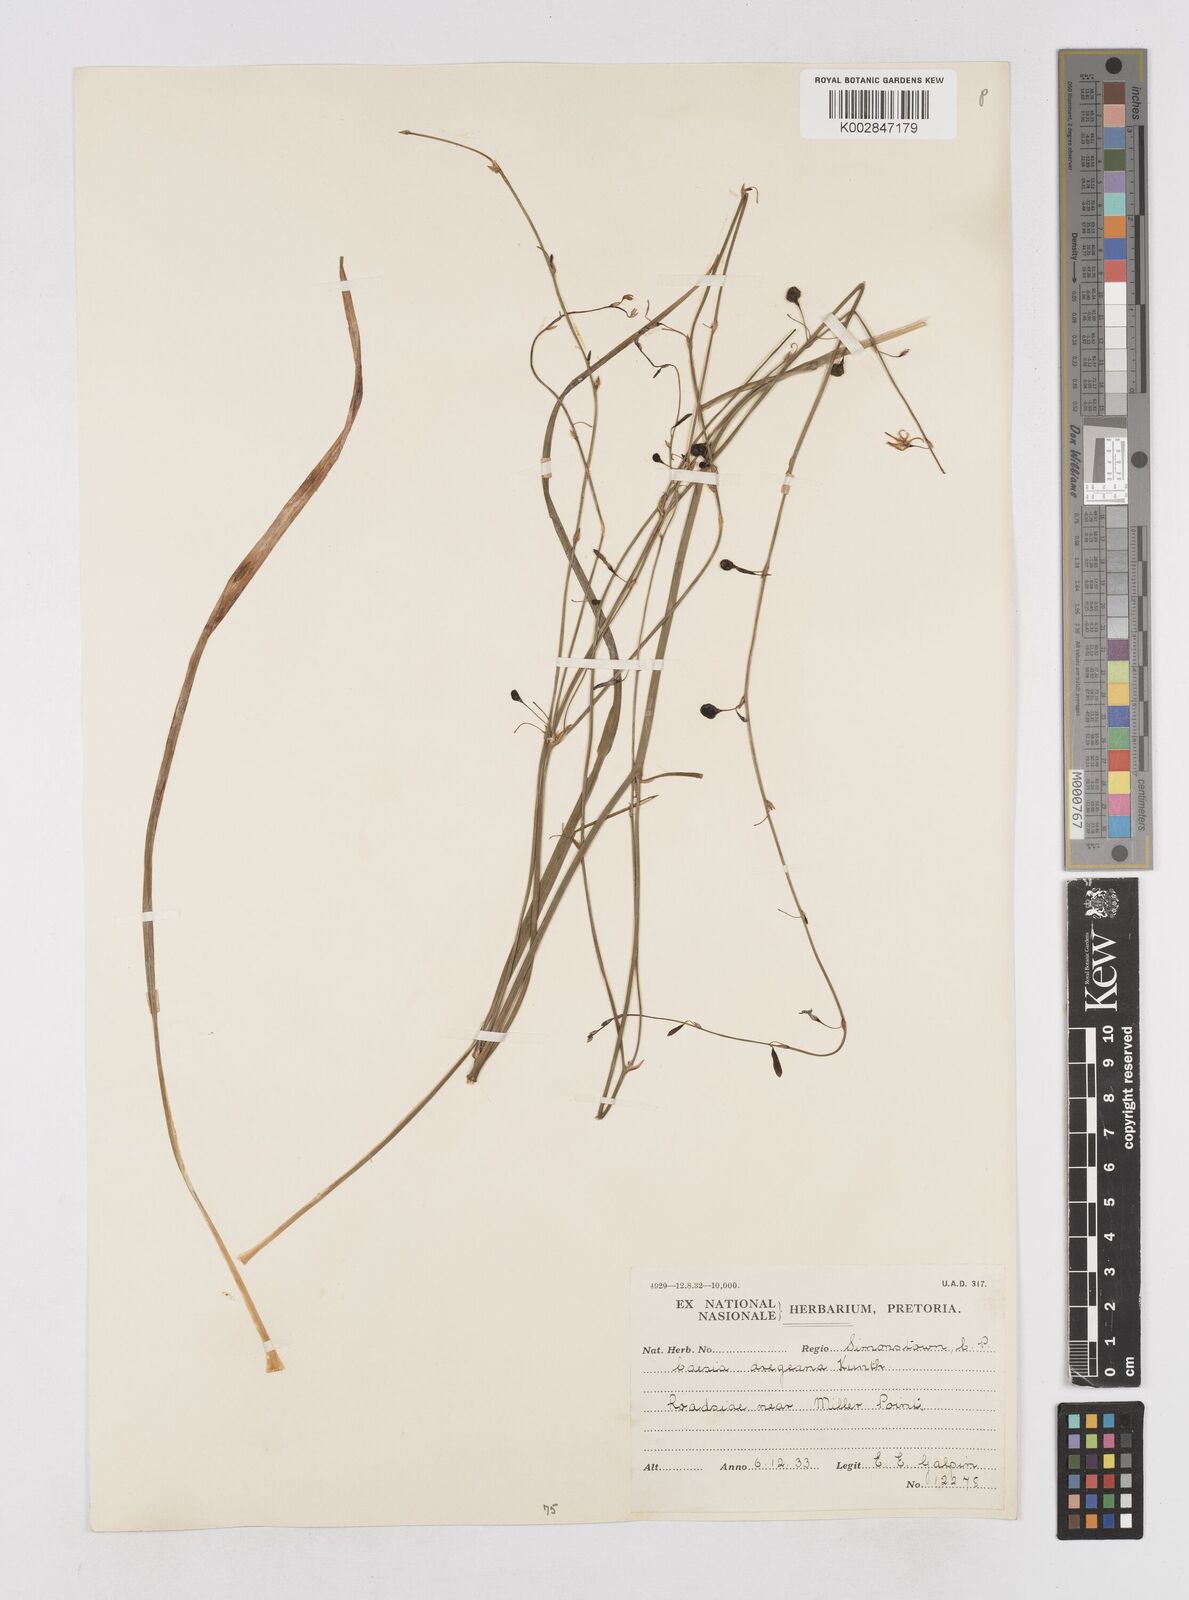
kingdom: Plantae
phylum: Tracheophyta
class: Liliopsida
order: Asparagales
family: Asphodelaceae
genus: Caesia
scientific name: Caesia contorta
